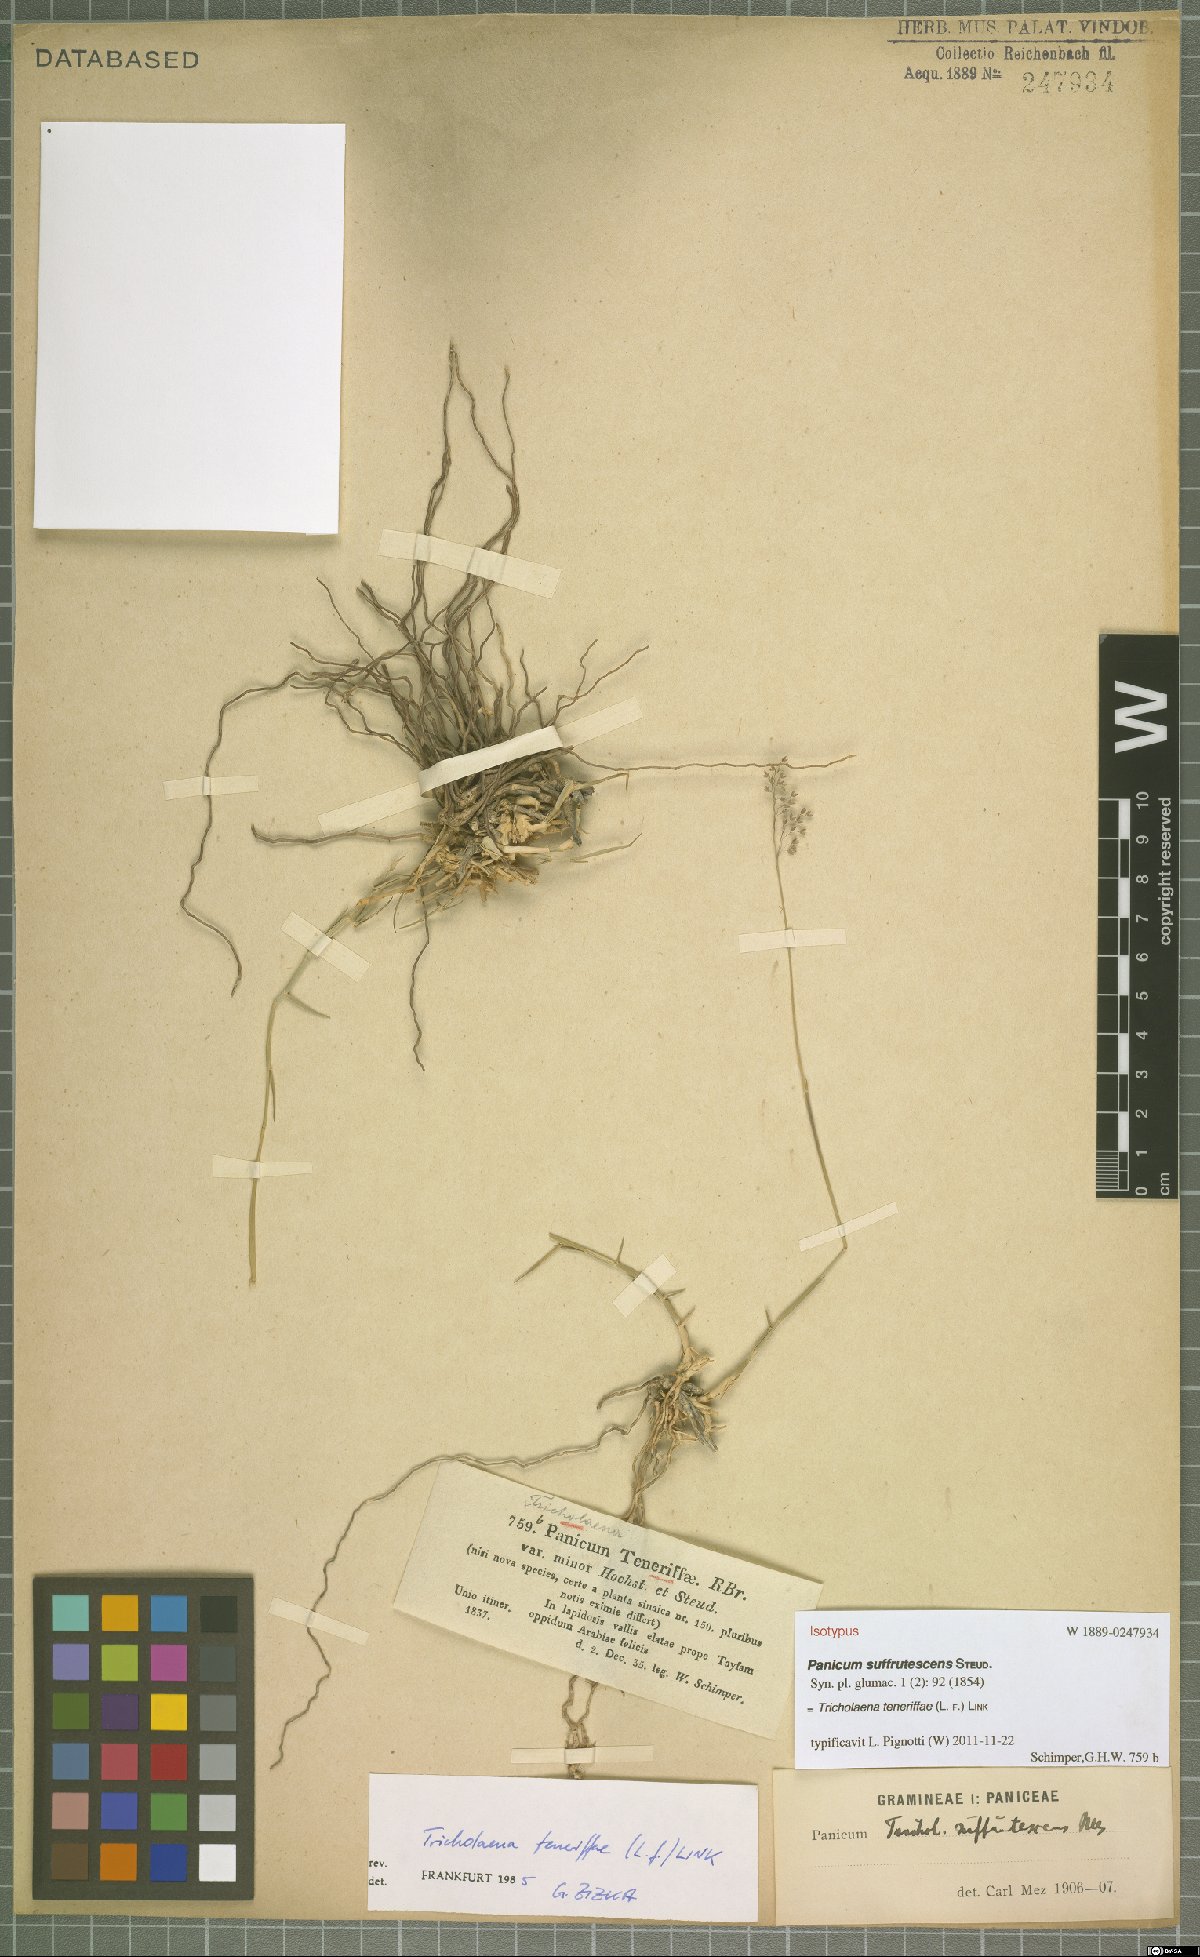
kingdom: Plantae
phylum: Tracheophyta
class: Liliopsida
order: Poales
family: Poaceae
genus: Tricholaena
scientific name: Tricholaena teneriffae
